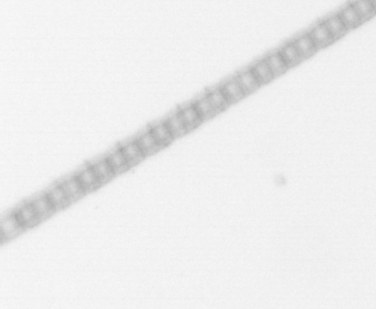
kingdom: Chromista
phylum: Ochrophyta
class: Bacillariophyceae
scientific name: Bacillariophyceae
